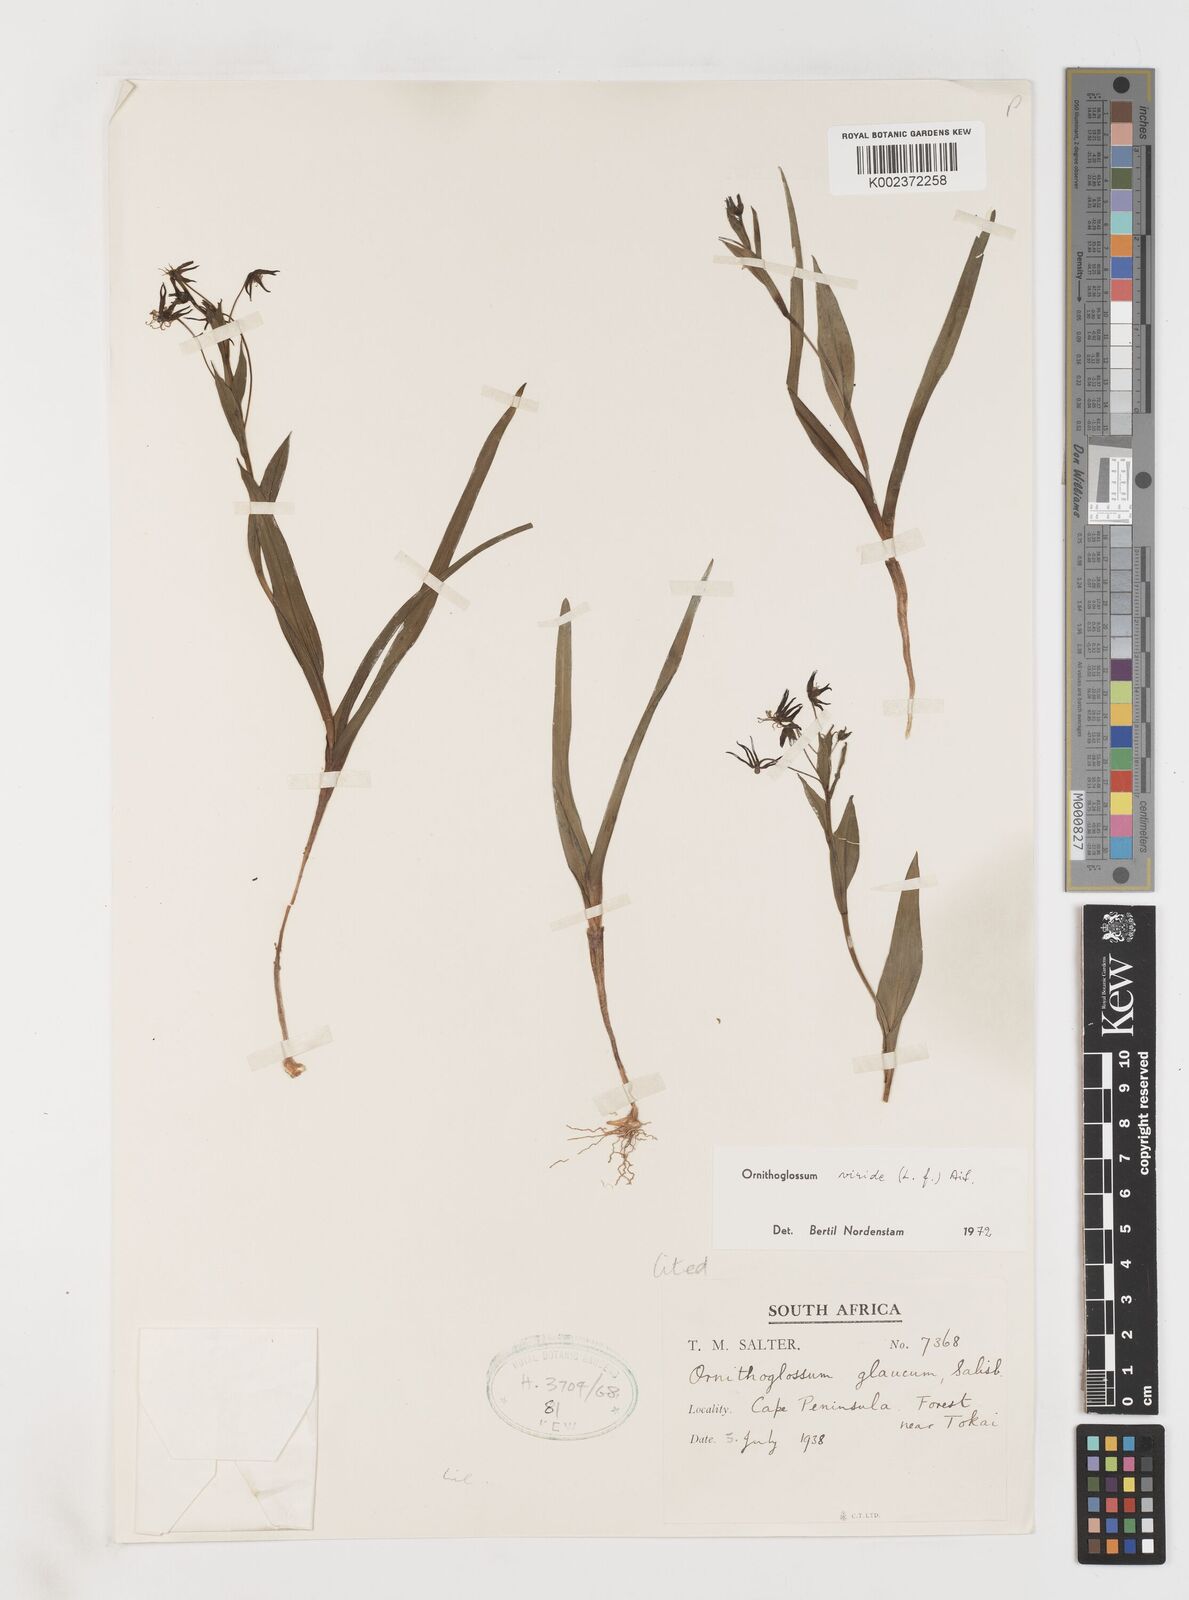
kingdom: Plantae
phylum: Tracheophyta
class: Liliopsida
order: Liliales
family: Colchicaceae
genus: Ornithoglossum
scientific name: Ornithoglossum viride
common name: Cape poison-onion
